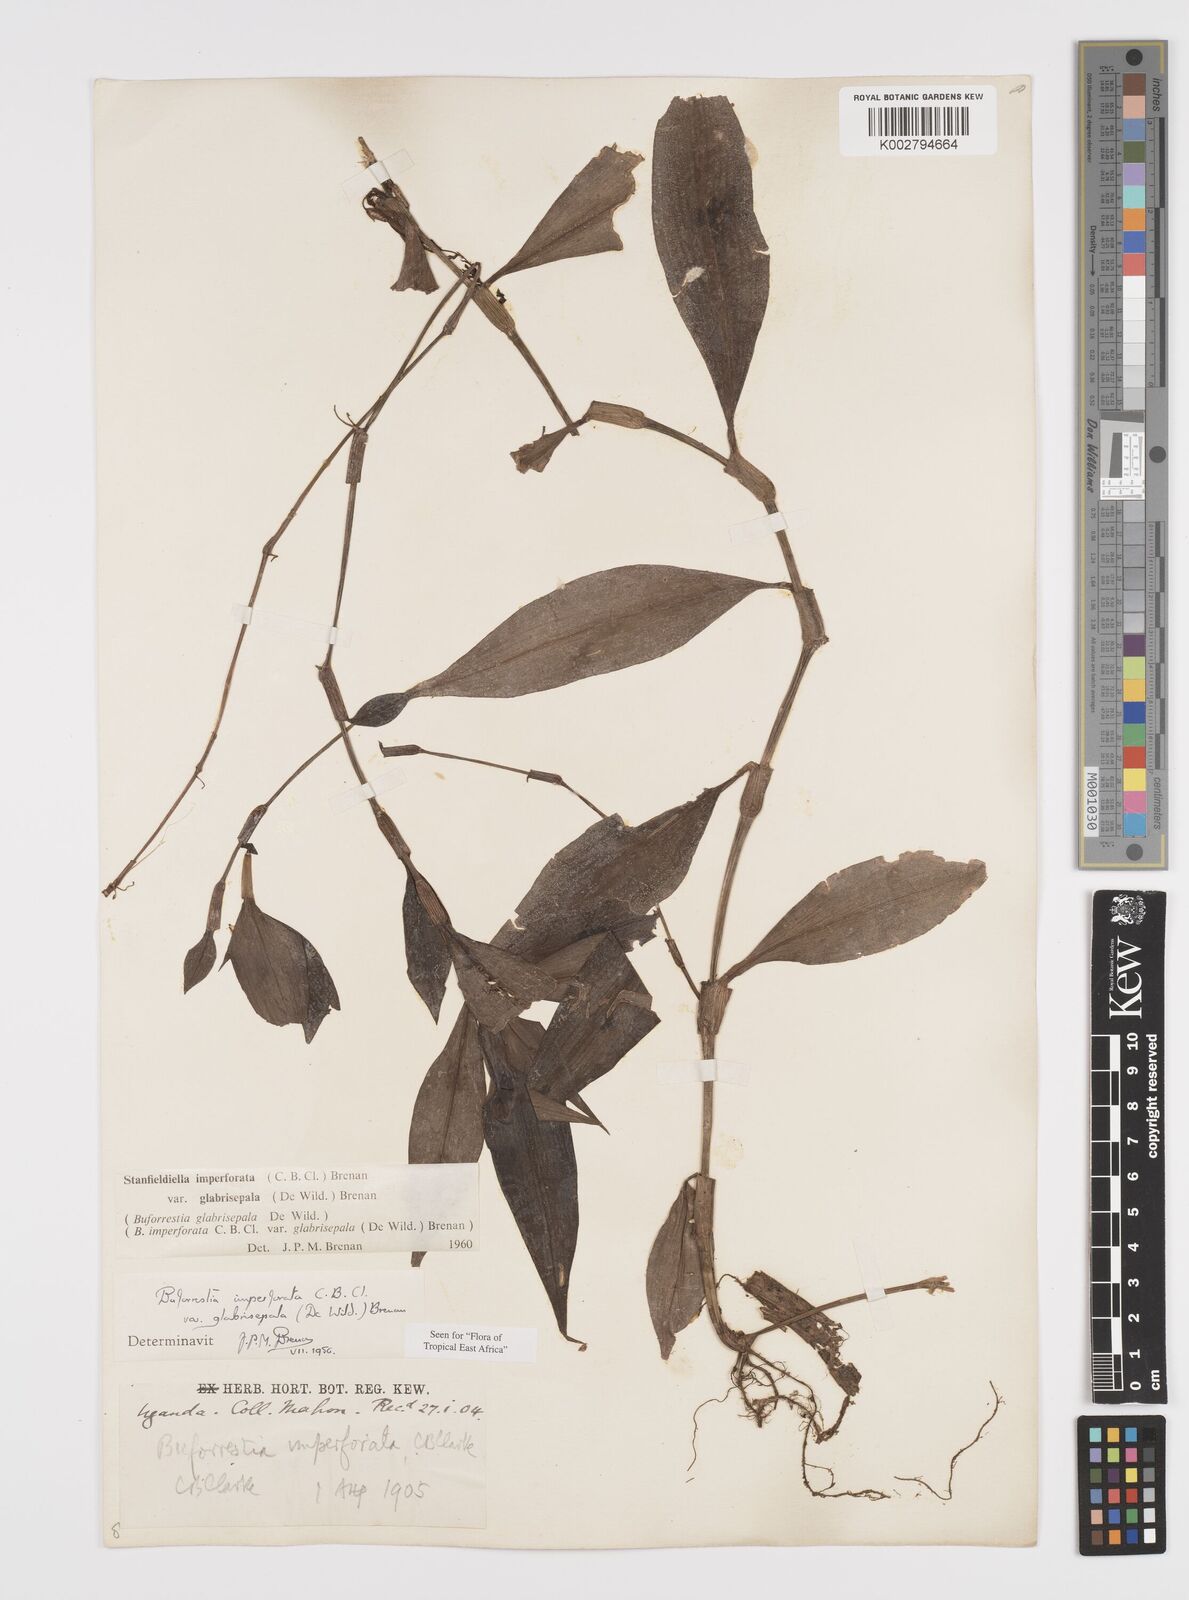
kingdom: Plantae
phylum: Tracheophyta
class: Liliopsida
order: Commelinales
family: Commelinaceae
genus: Stanfieldiella
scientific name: Stanfieldiella imperforata
